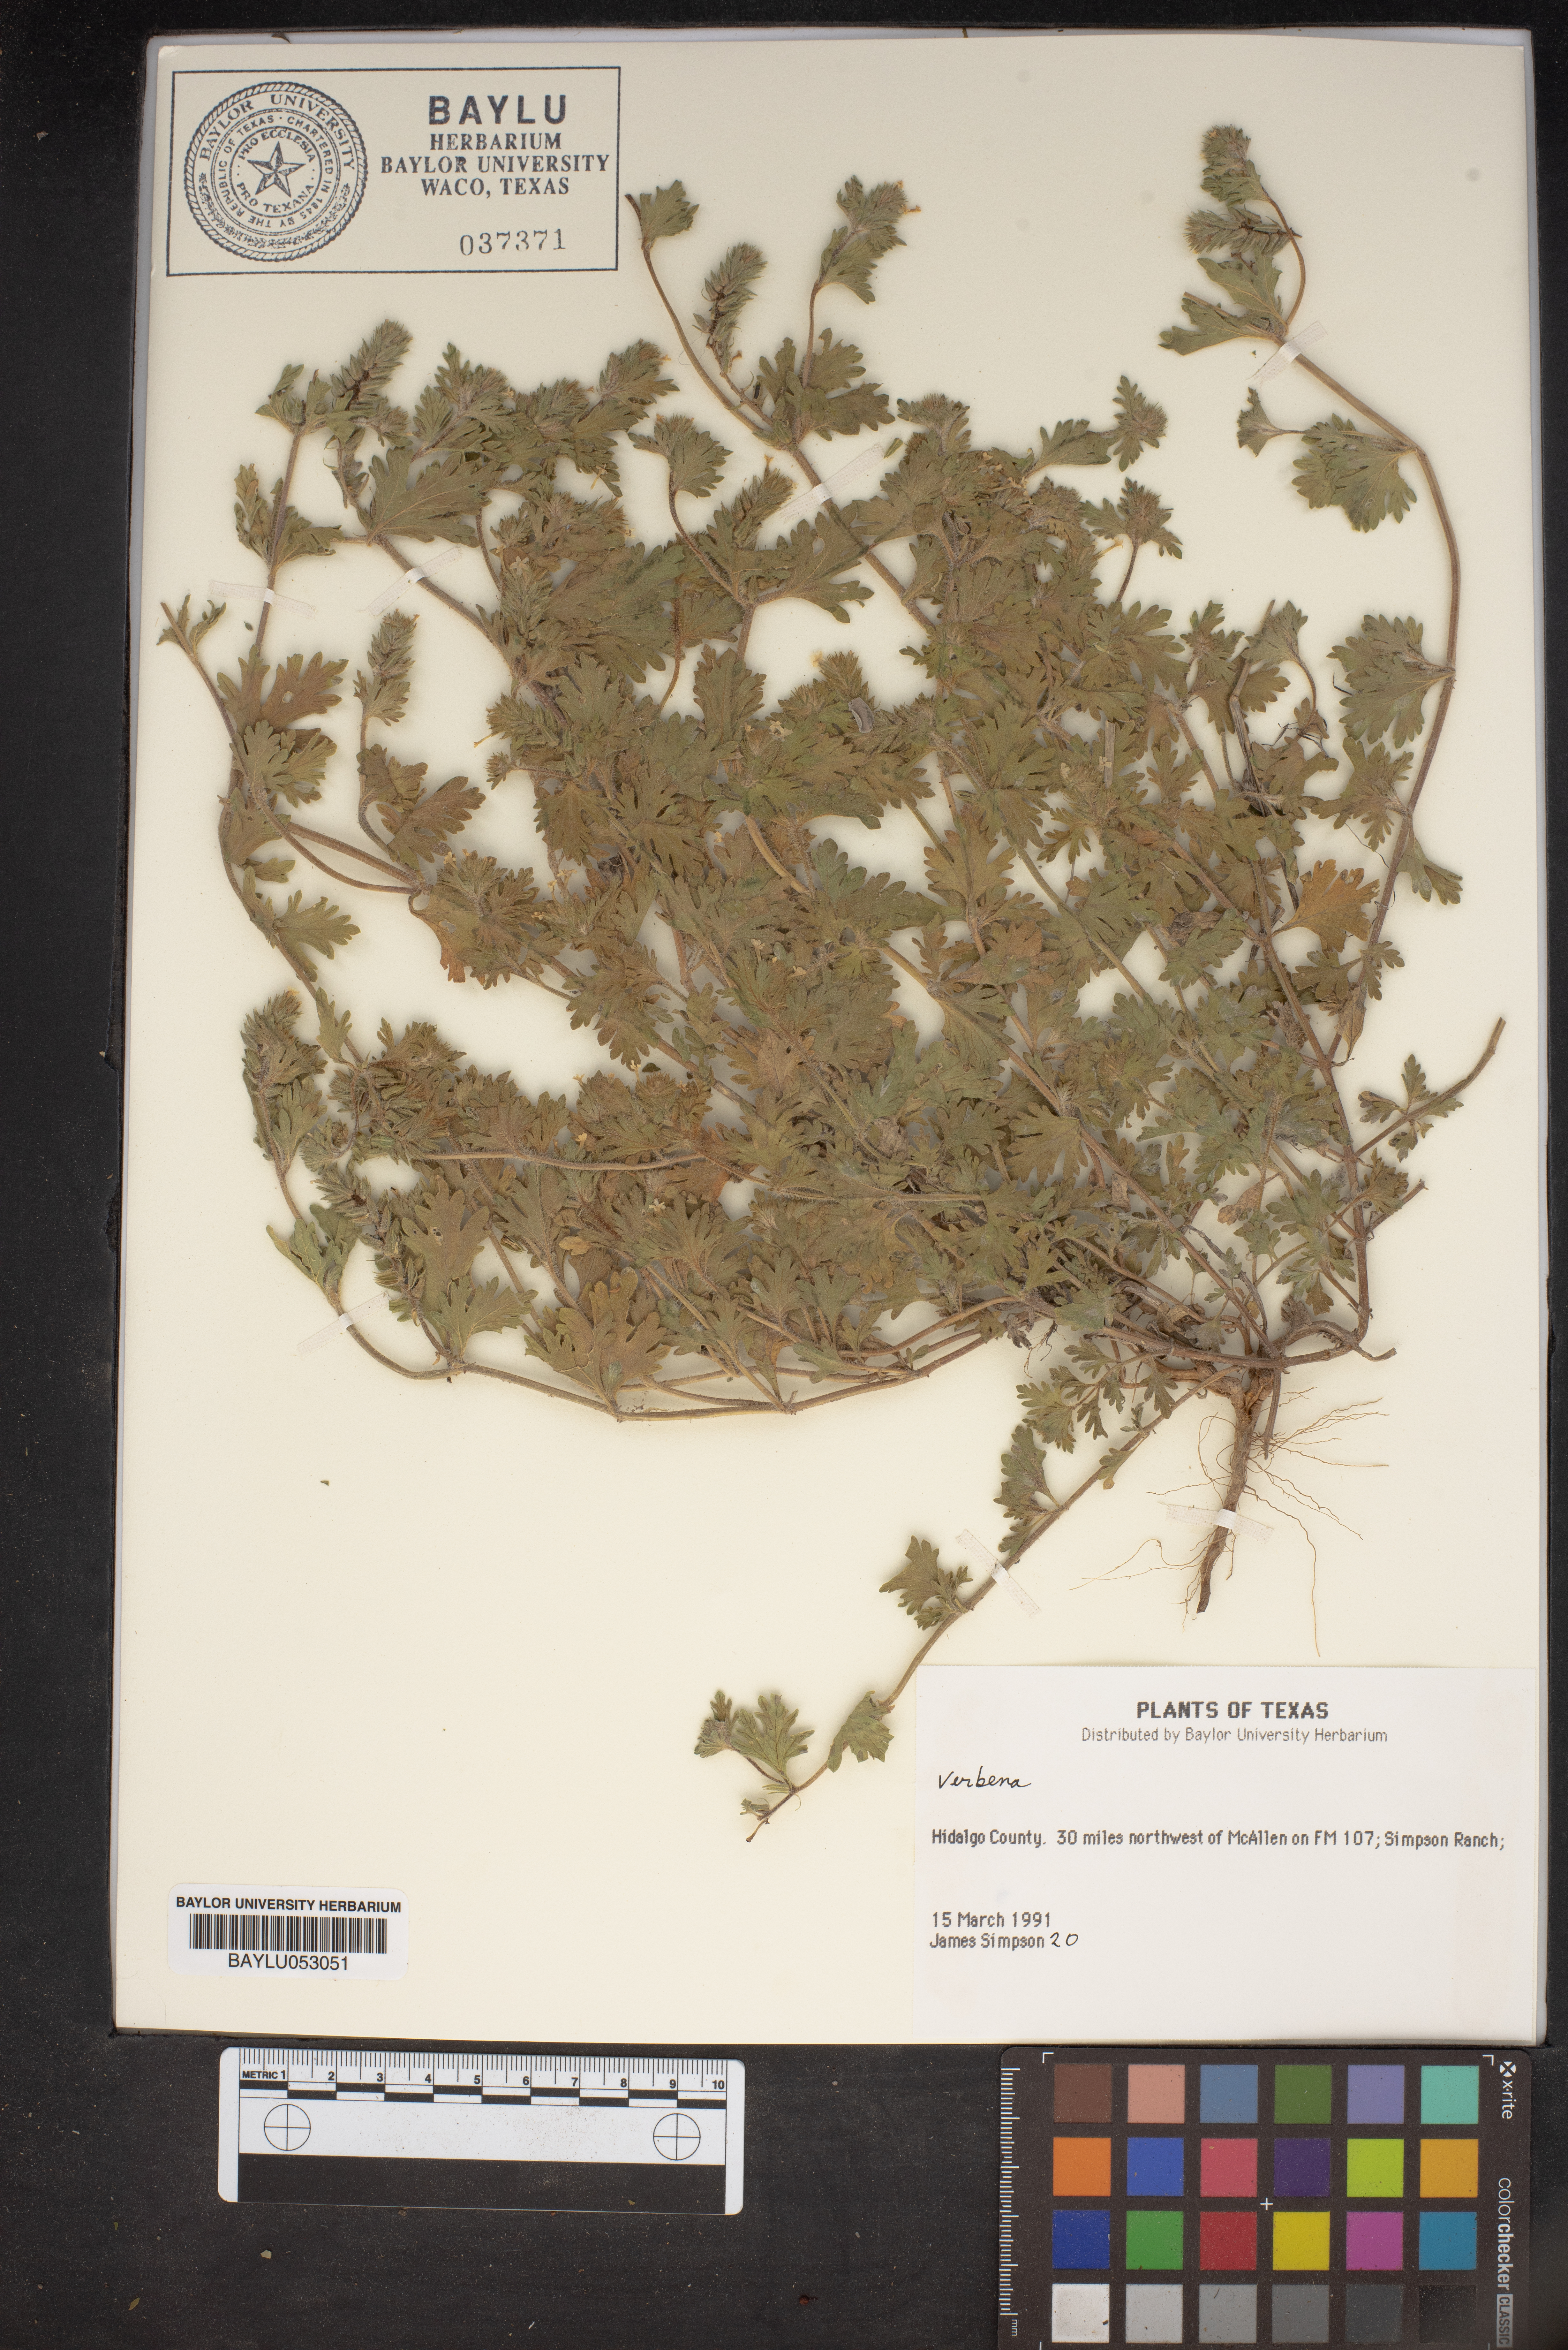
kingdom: Plantae
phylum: Tracheophyta
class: Magnoliopsida
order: Lamiales
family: Verbenaceae
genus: Verbena
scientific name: Verbena
